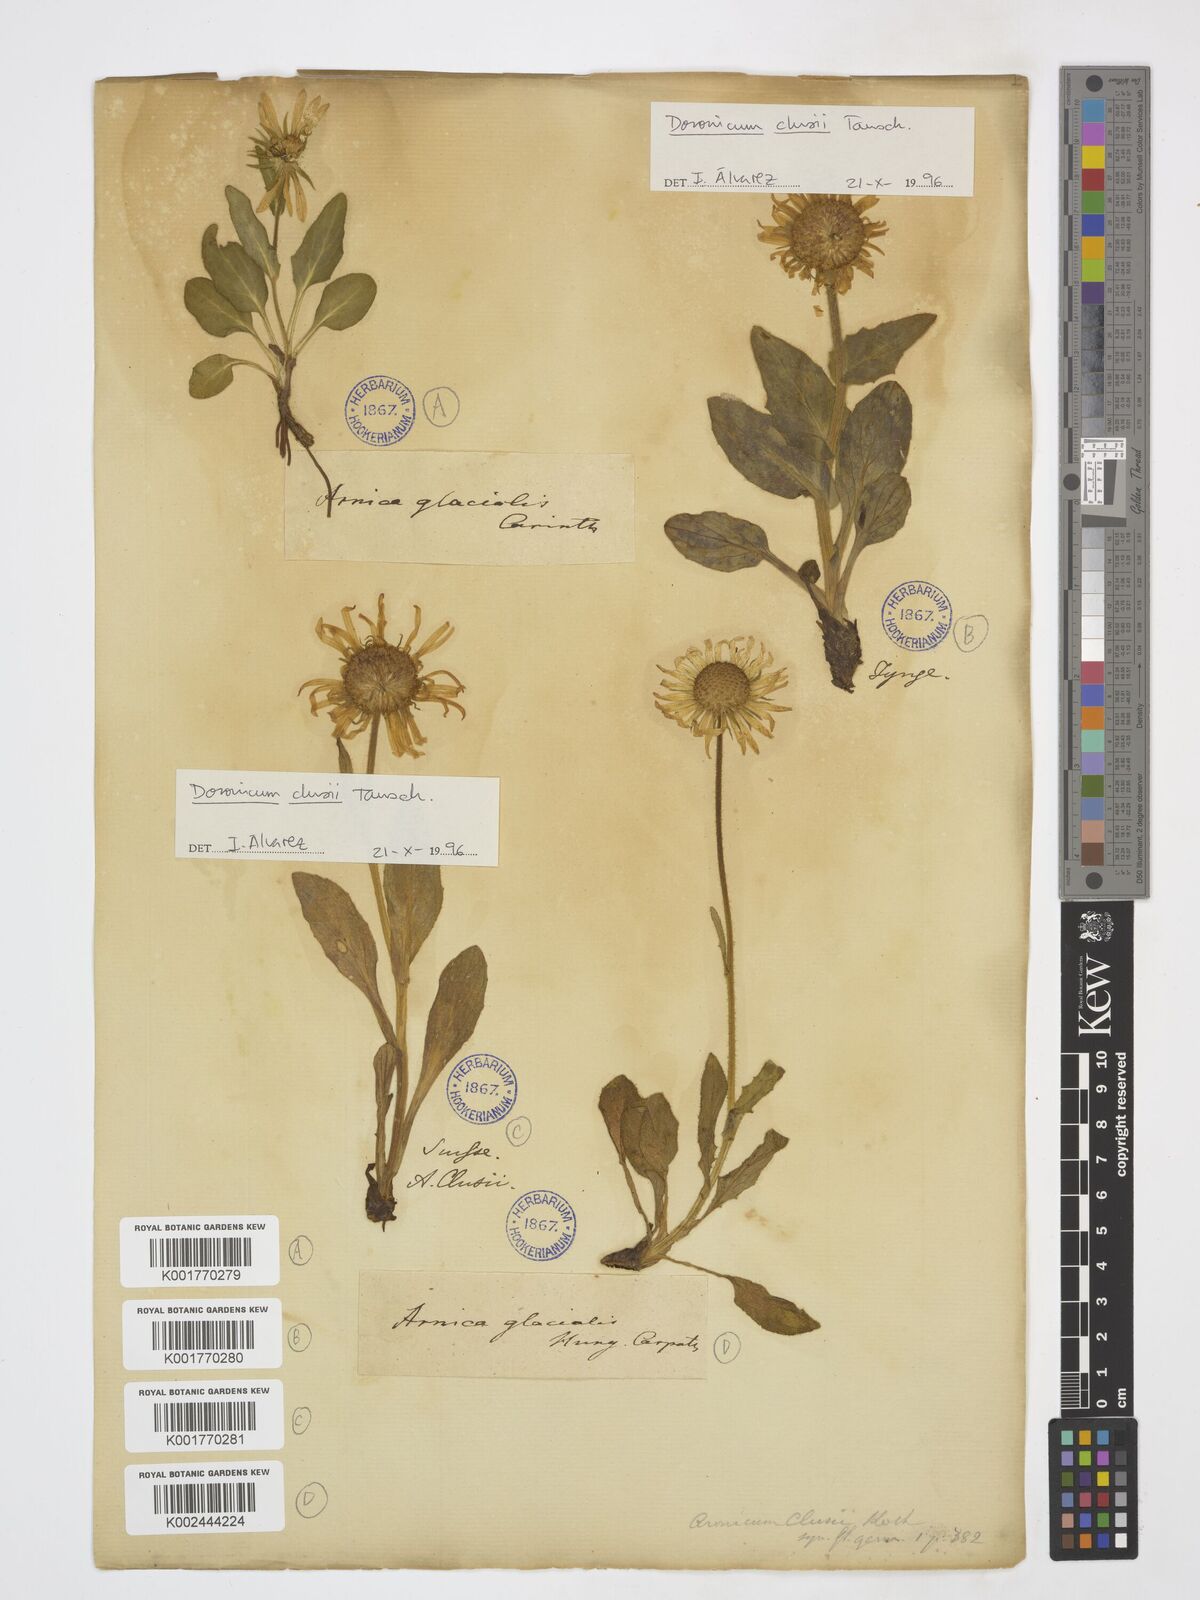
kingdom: Plantae
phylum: Tracheophyta
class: Magnoliopsida
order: Asterales
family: Asteraceae
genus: Doronicum
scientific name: Doronicum clusii
